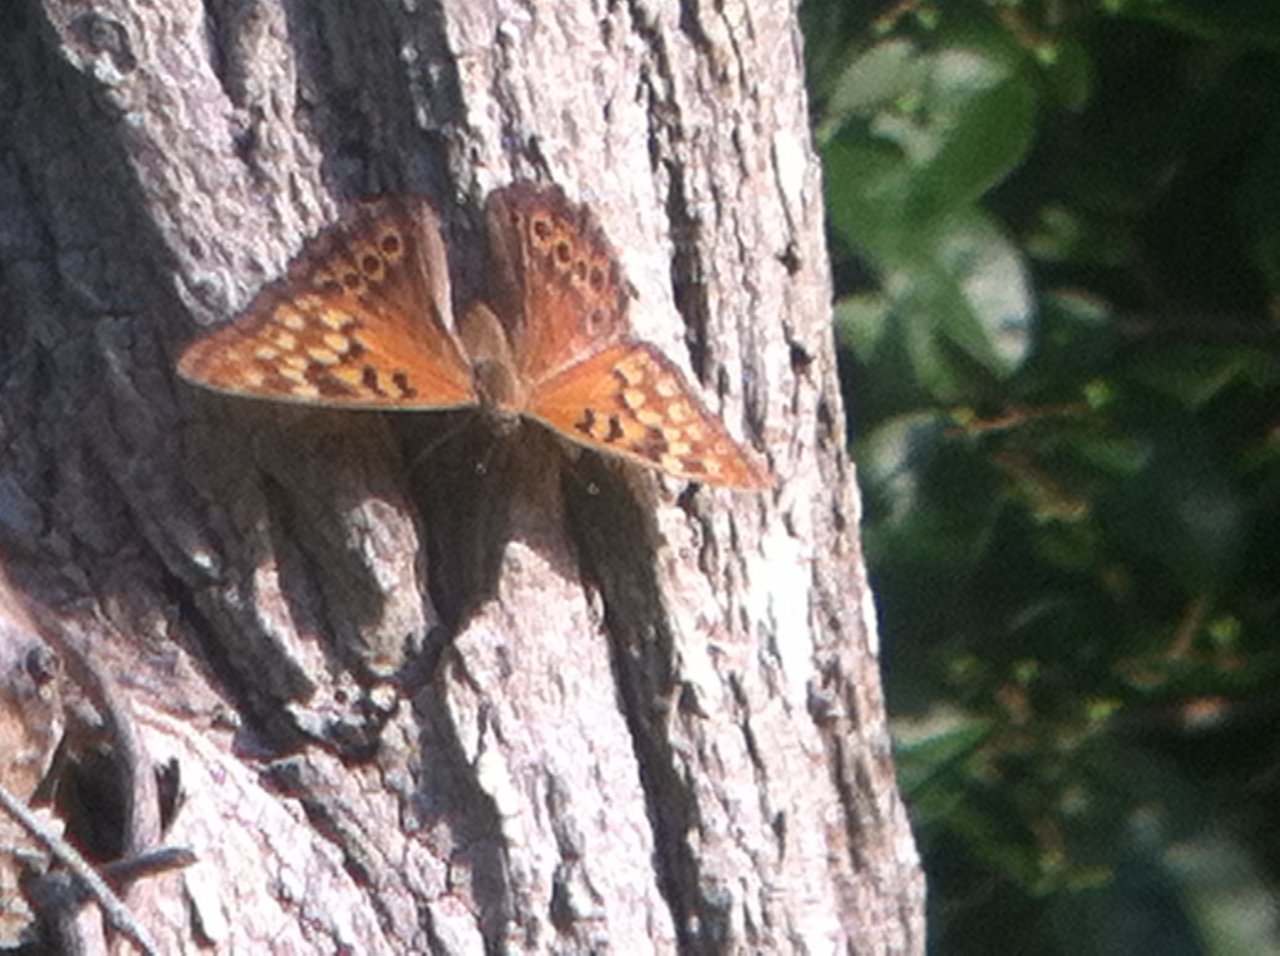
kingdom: Animalia
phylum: Arthropoda
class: Insecta
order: Lepidoptera
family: Nymphalidae
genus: Asterocampa
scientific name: Asterocampa clyton
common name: Tawny Emperor
